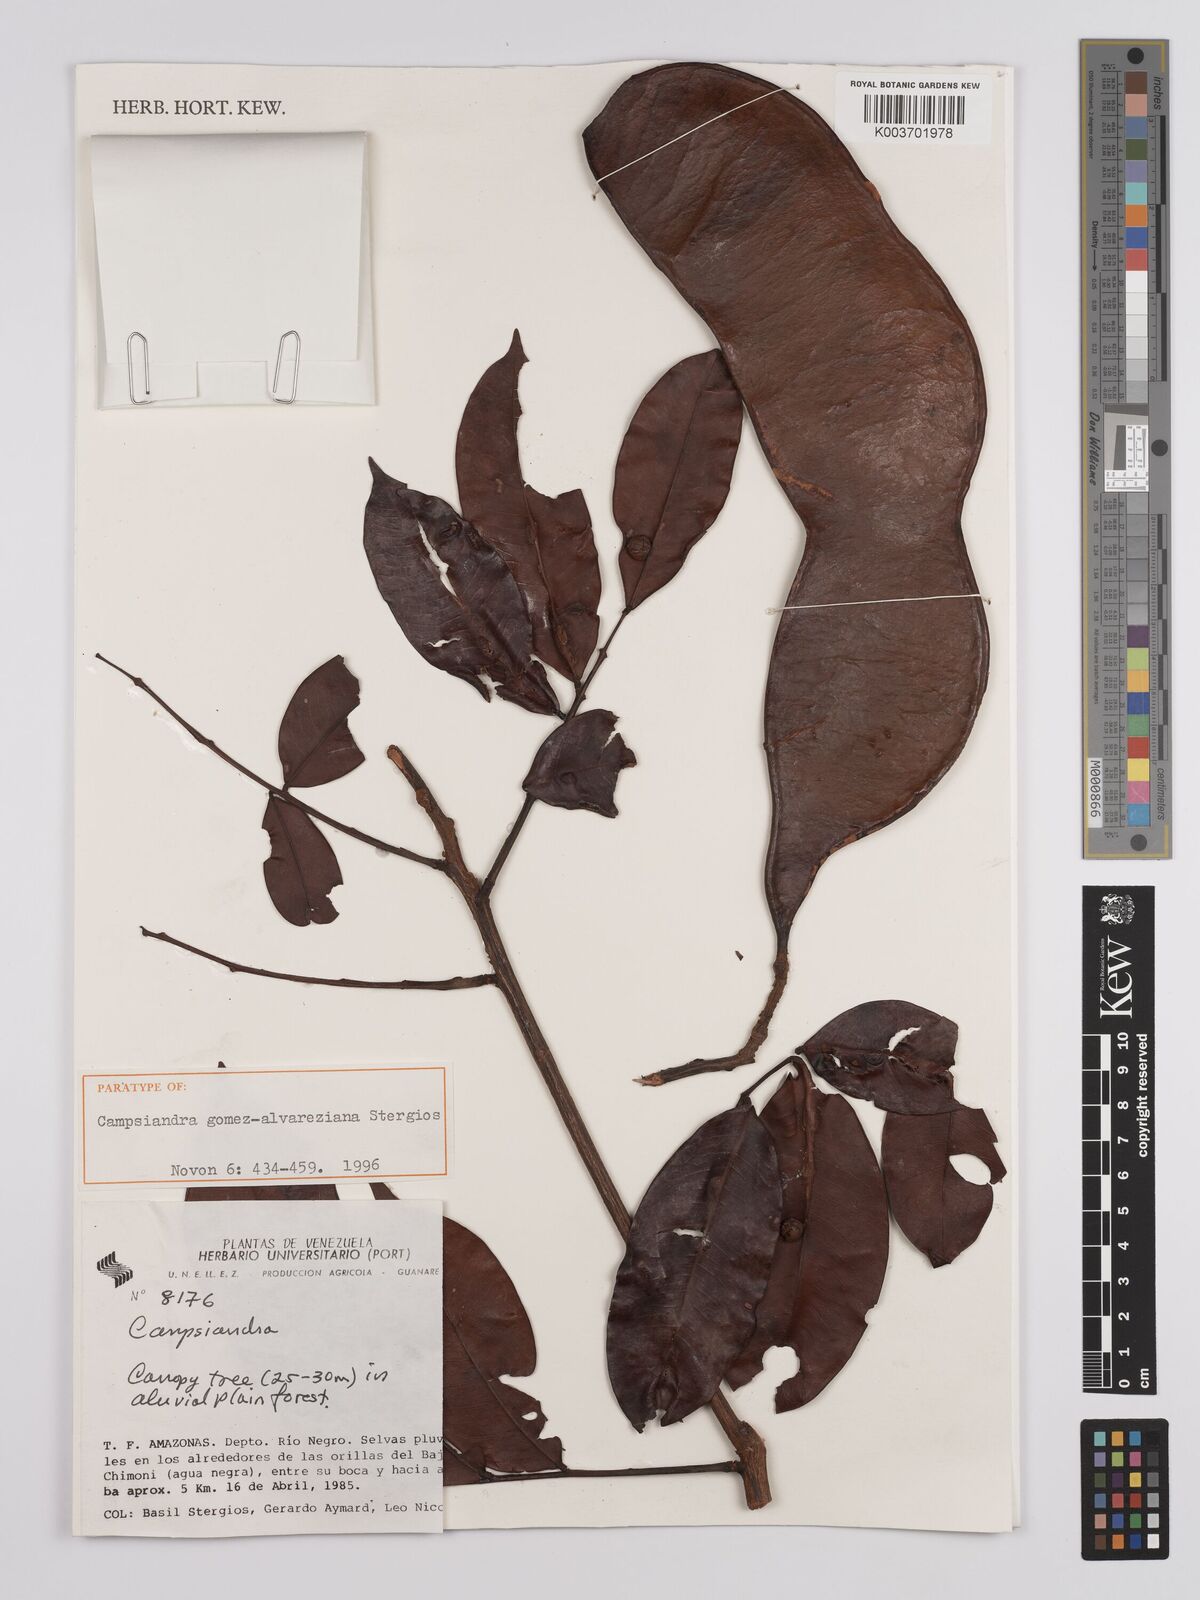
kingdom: Plantae
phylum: Tracheophyta
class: Magnoliopsida
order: Fabales
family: Fabaceae
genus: Campsiandra
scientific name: Campsiandra gomez-alvareziana
